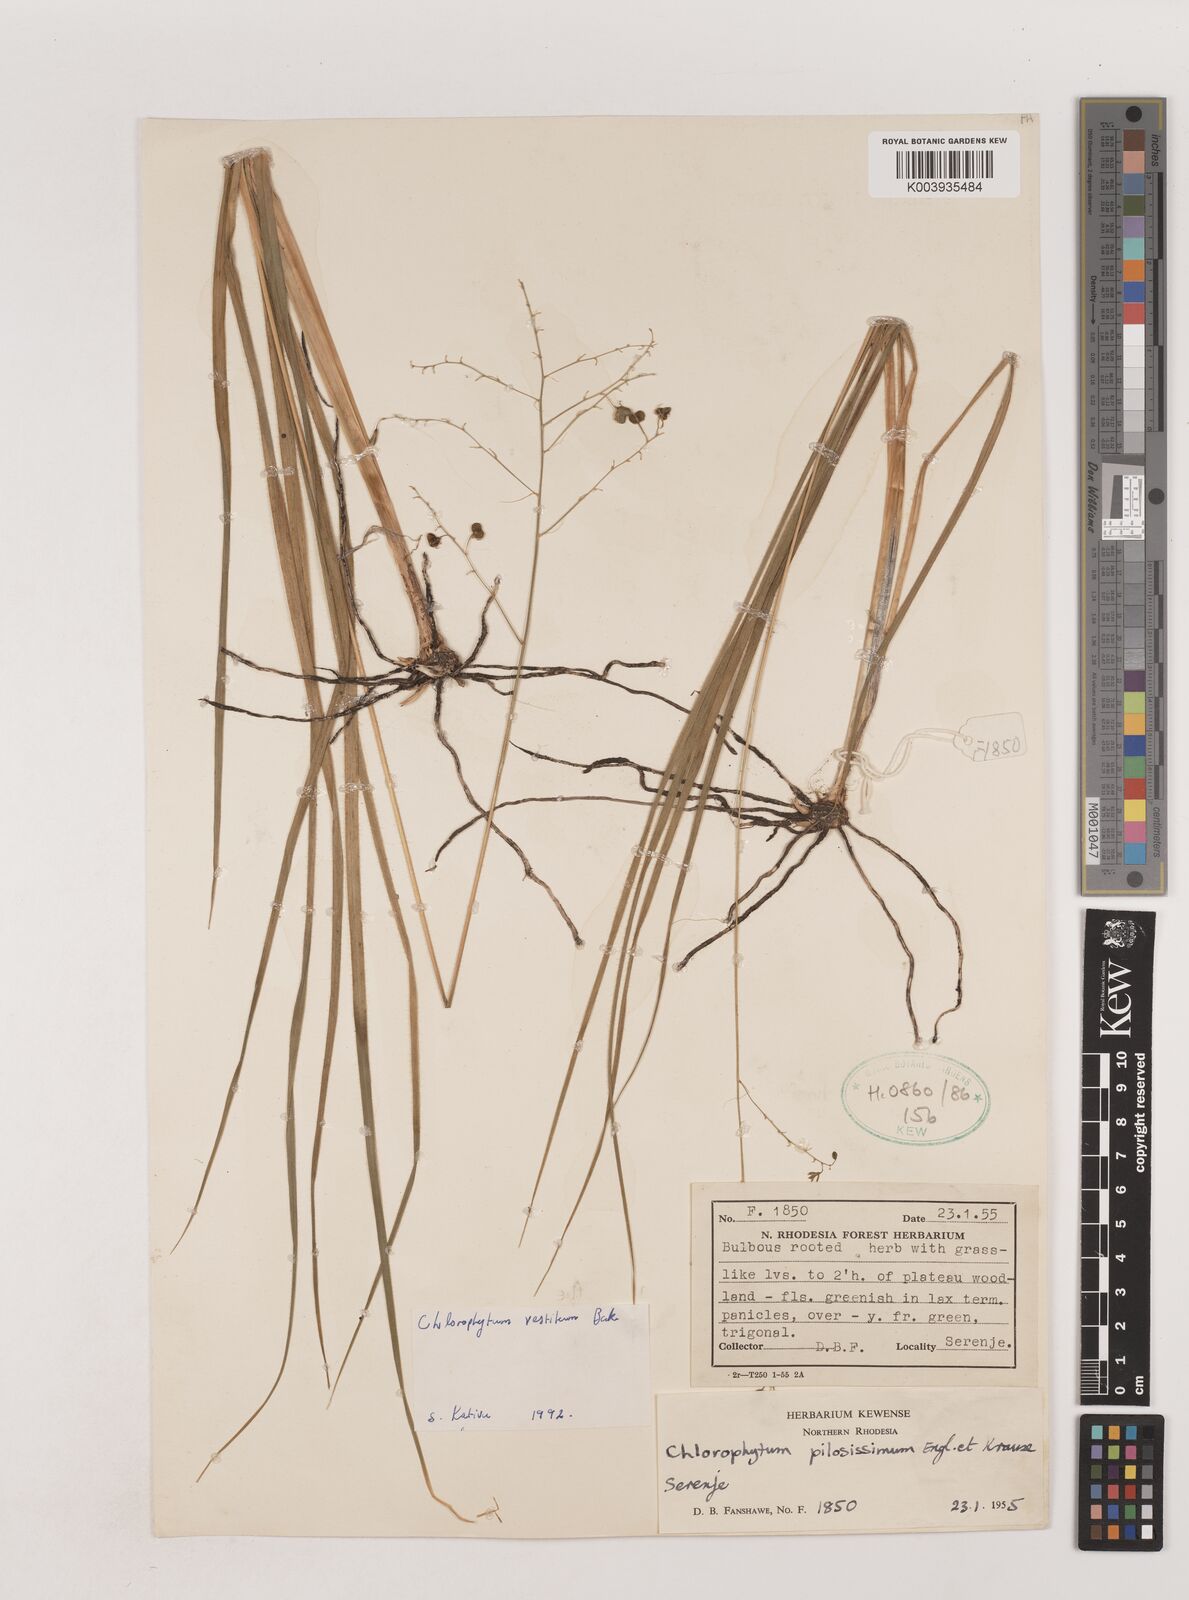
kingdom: Plantae
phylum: Tracheophyta
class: Liliopsida
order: Asparagales
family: Asparagaceae
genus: Chlorophytum
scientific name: Chlorophytum vestitum
